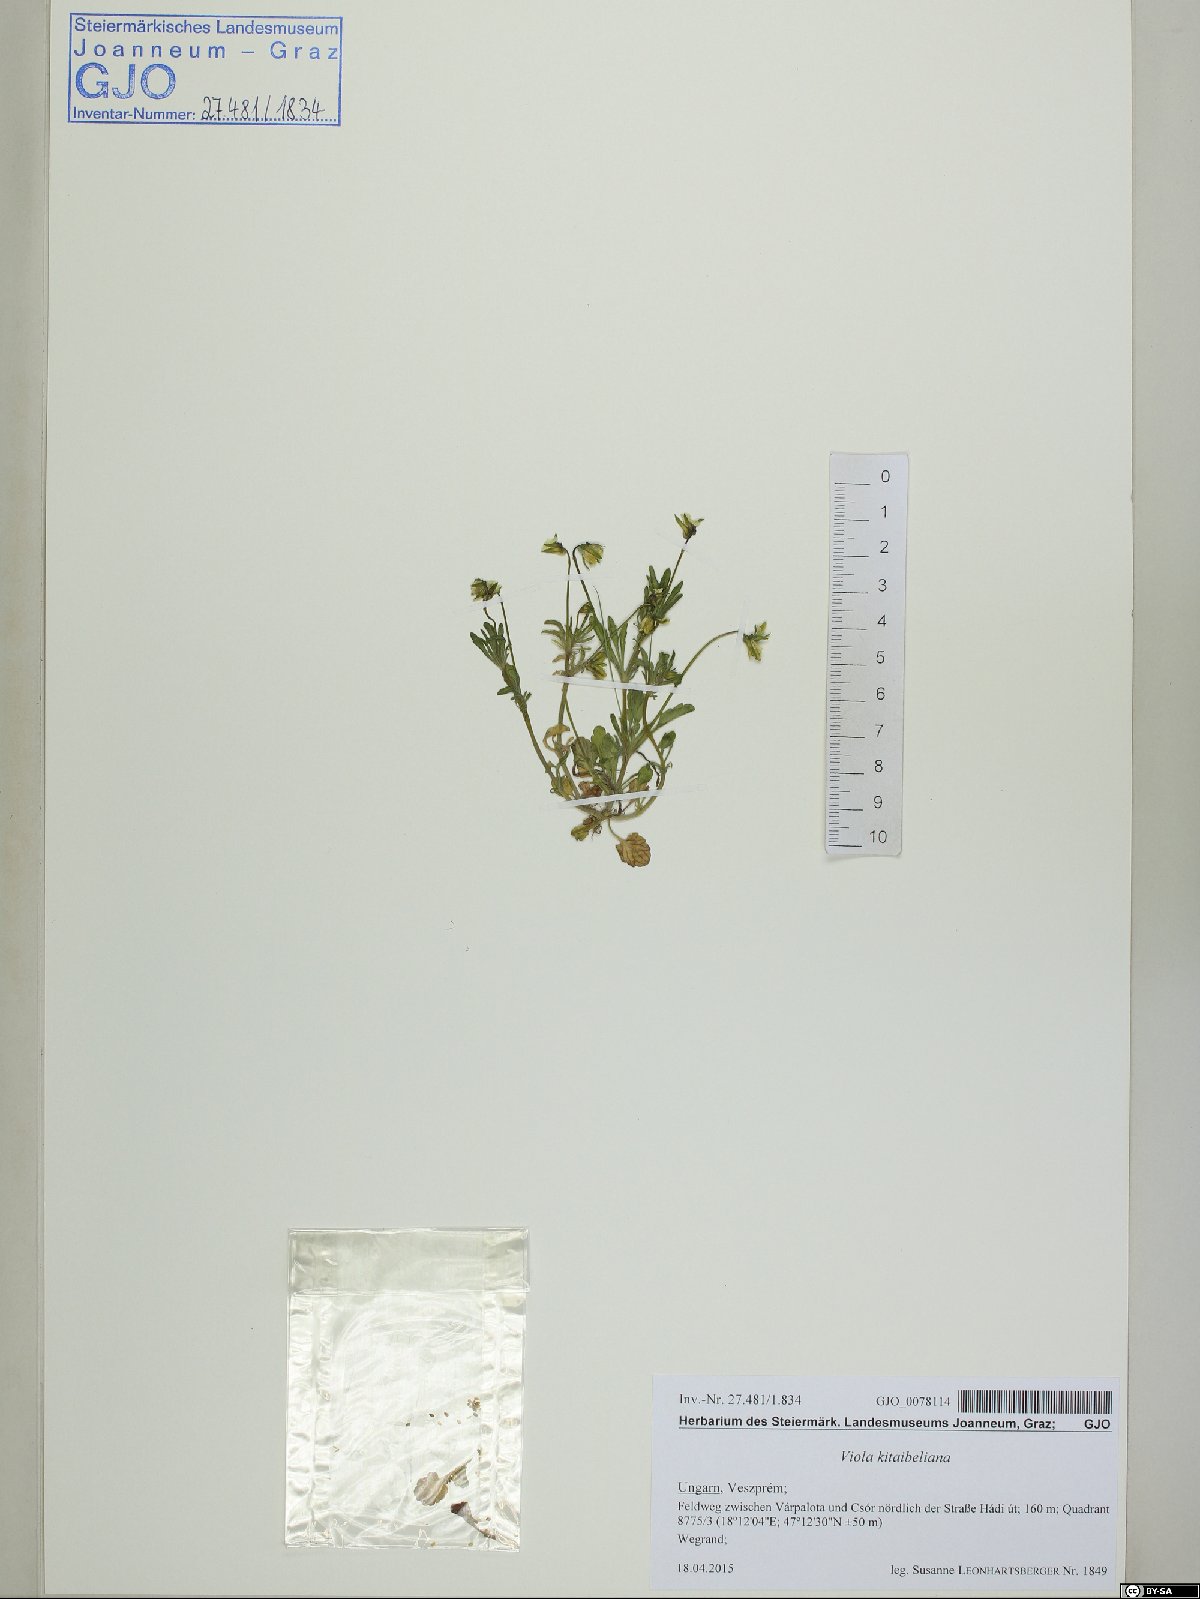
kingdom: Plantae
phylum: Tracheophyta
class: Magnoliopsida
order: Malpighiales
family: Violaceae
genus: Viola
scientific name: Viola kitaibeliana
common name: Dwarf pansy
